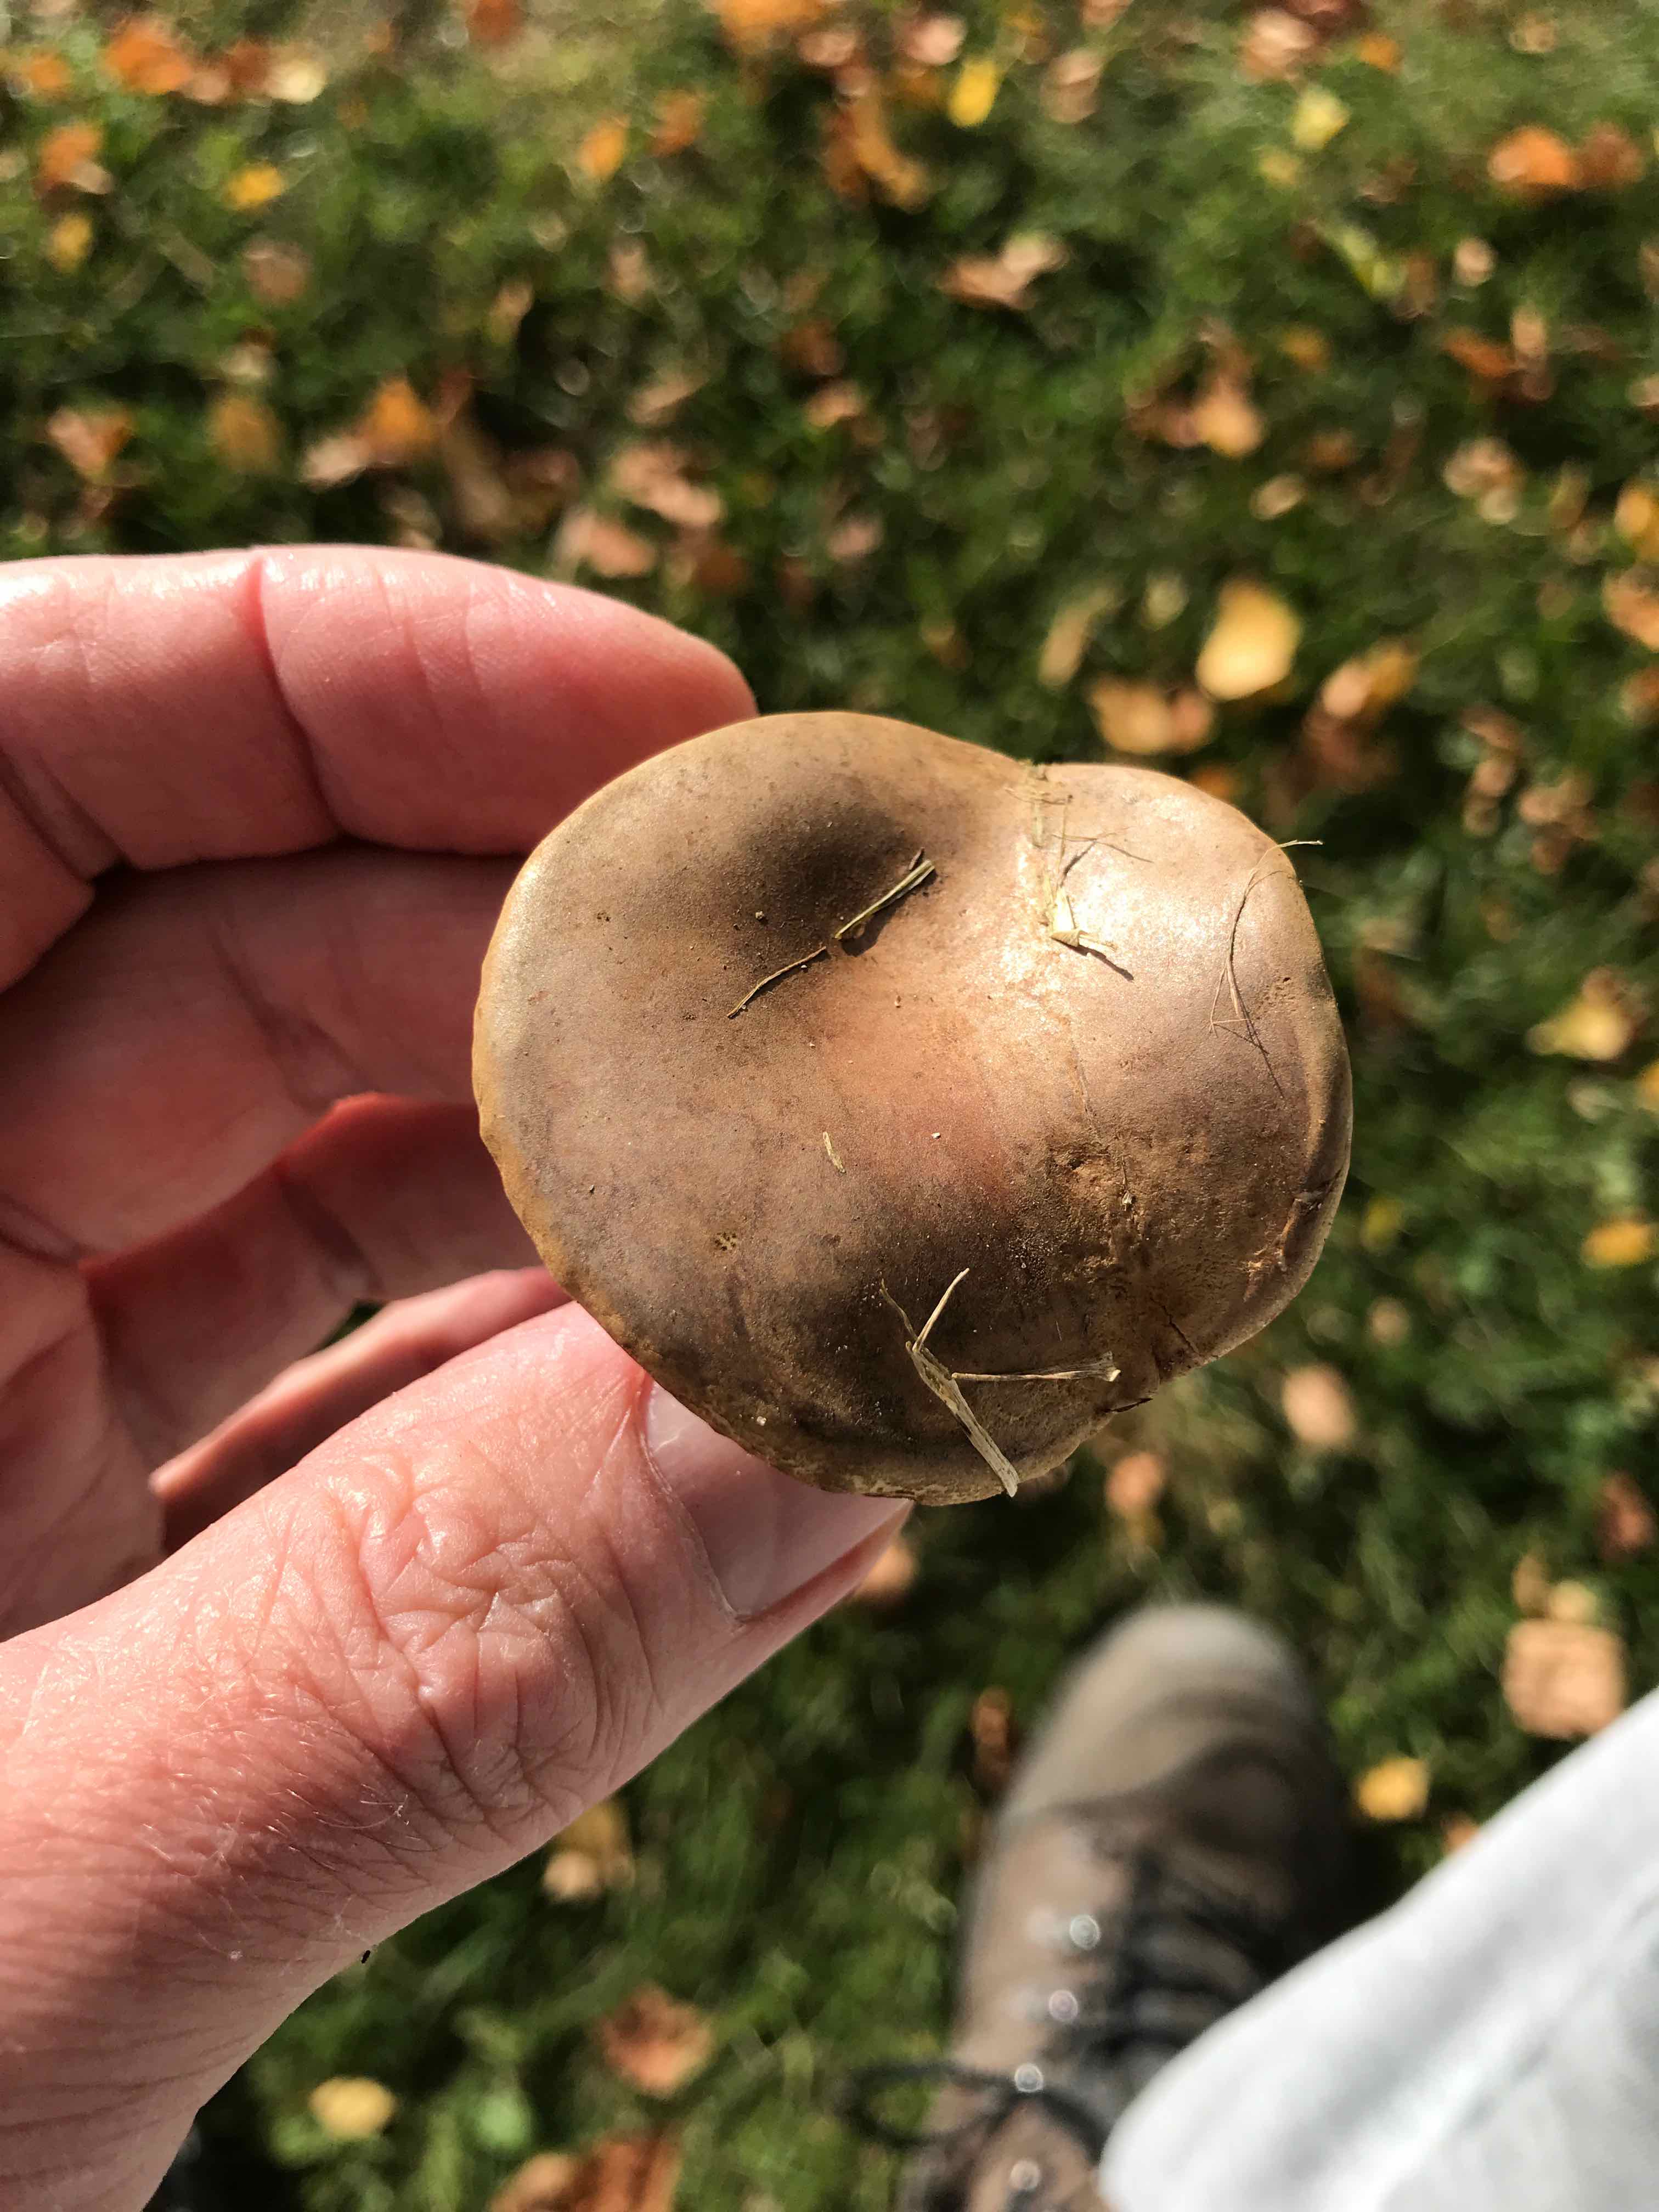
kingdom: Fungi
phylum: Basidiomycota
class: Agaricomycetes
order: Boletales
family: Boletaceae
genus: Hortiboletus
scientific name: Hortiboletus bubalinus
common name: aurora-rørhat
